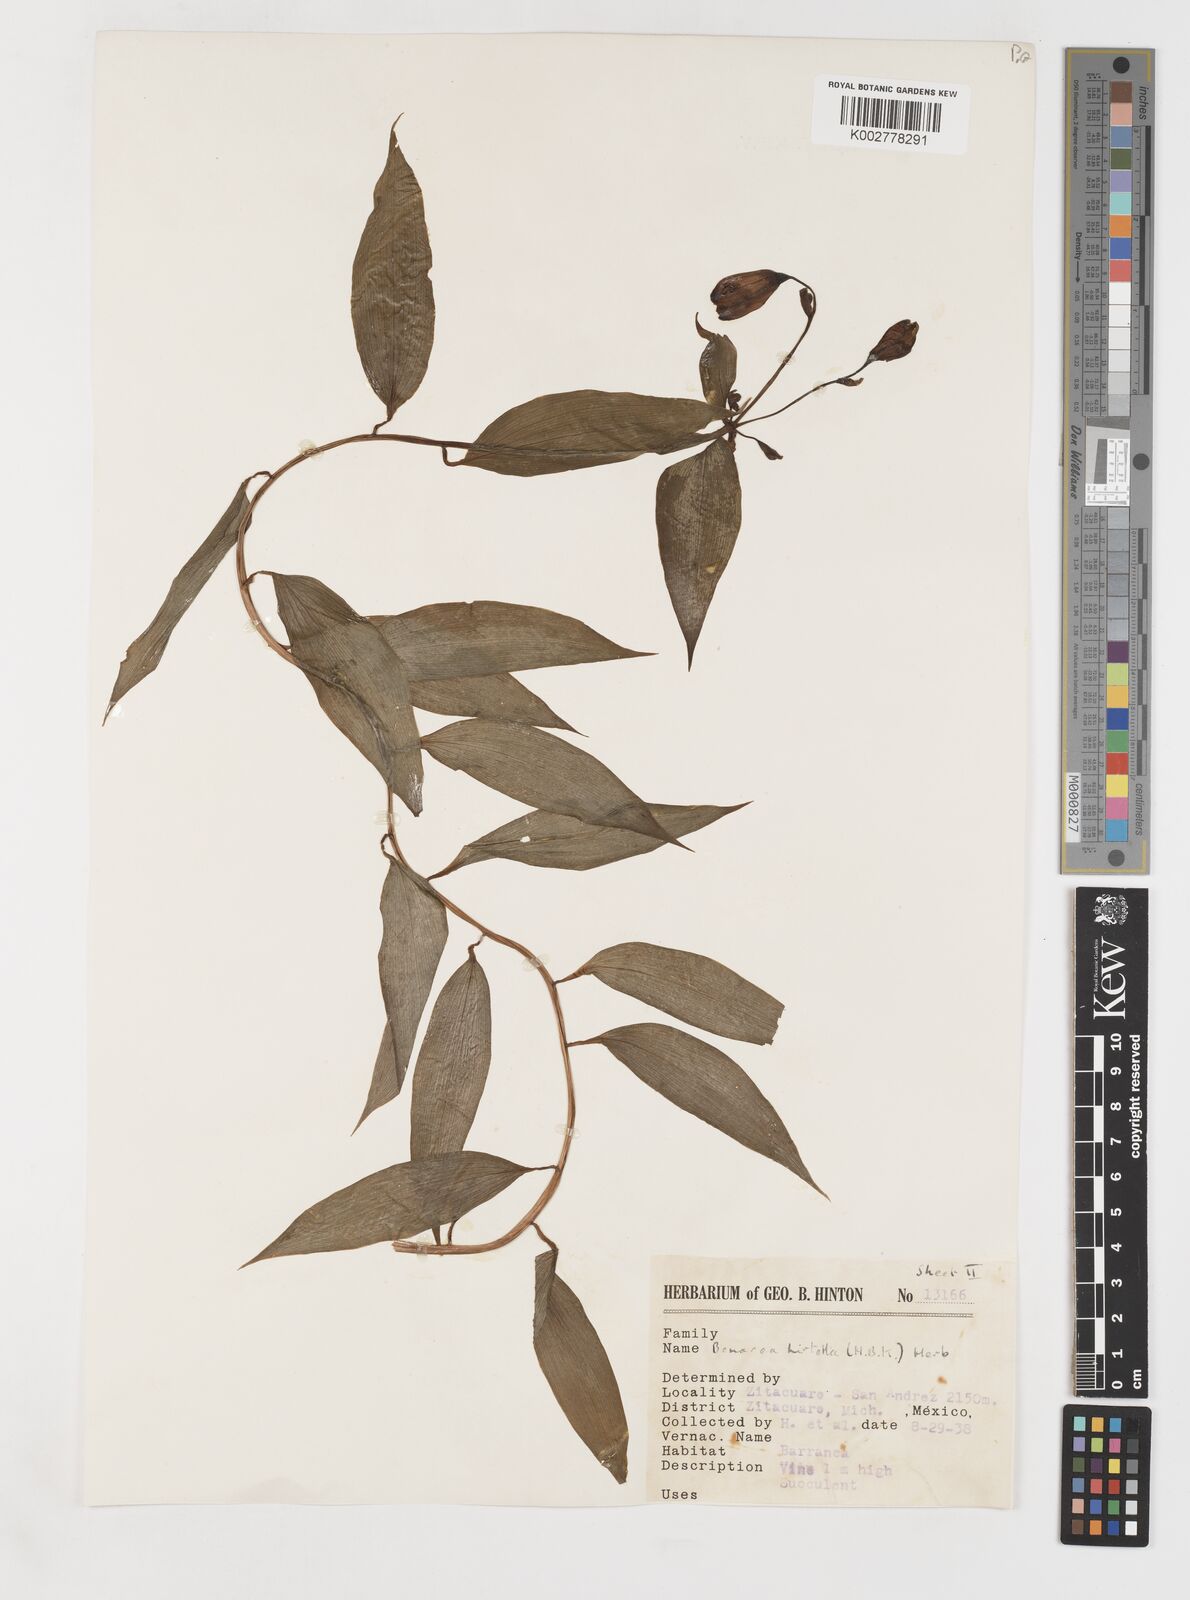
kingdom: Plantae
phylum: Tracheophyta
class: Liliopsida
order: Liliales
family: Alstroemeriaceae
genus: Bomarea
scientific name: Bomarea edulis
